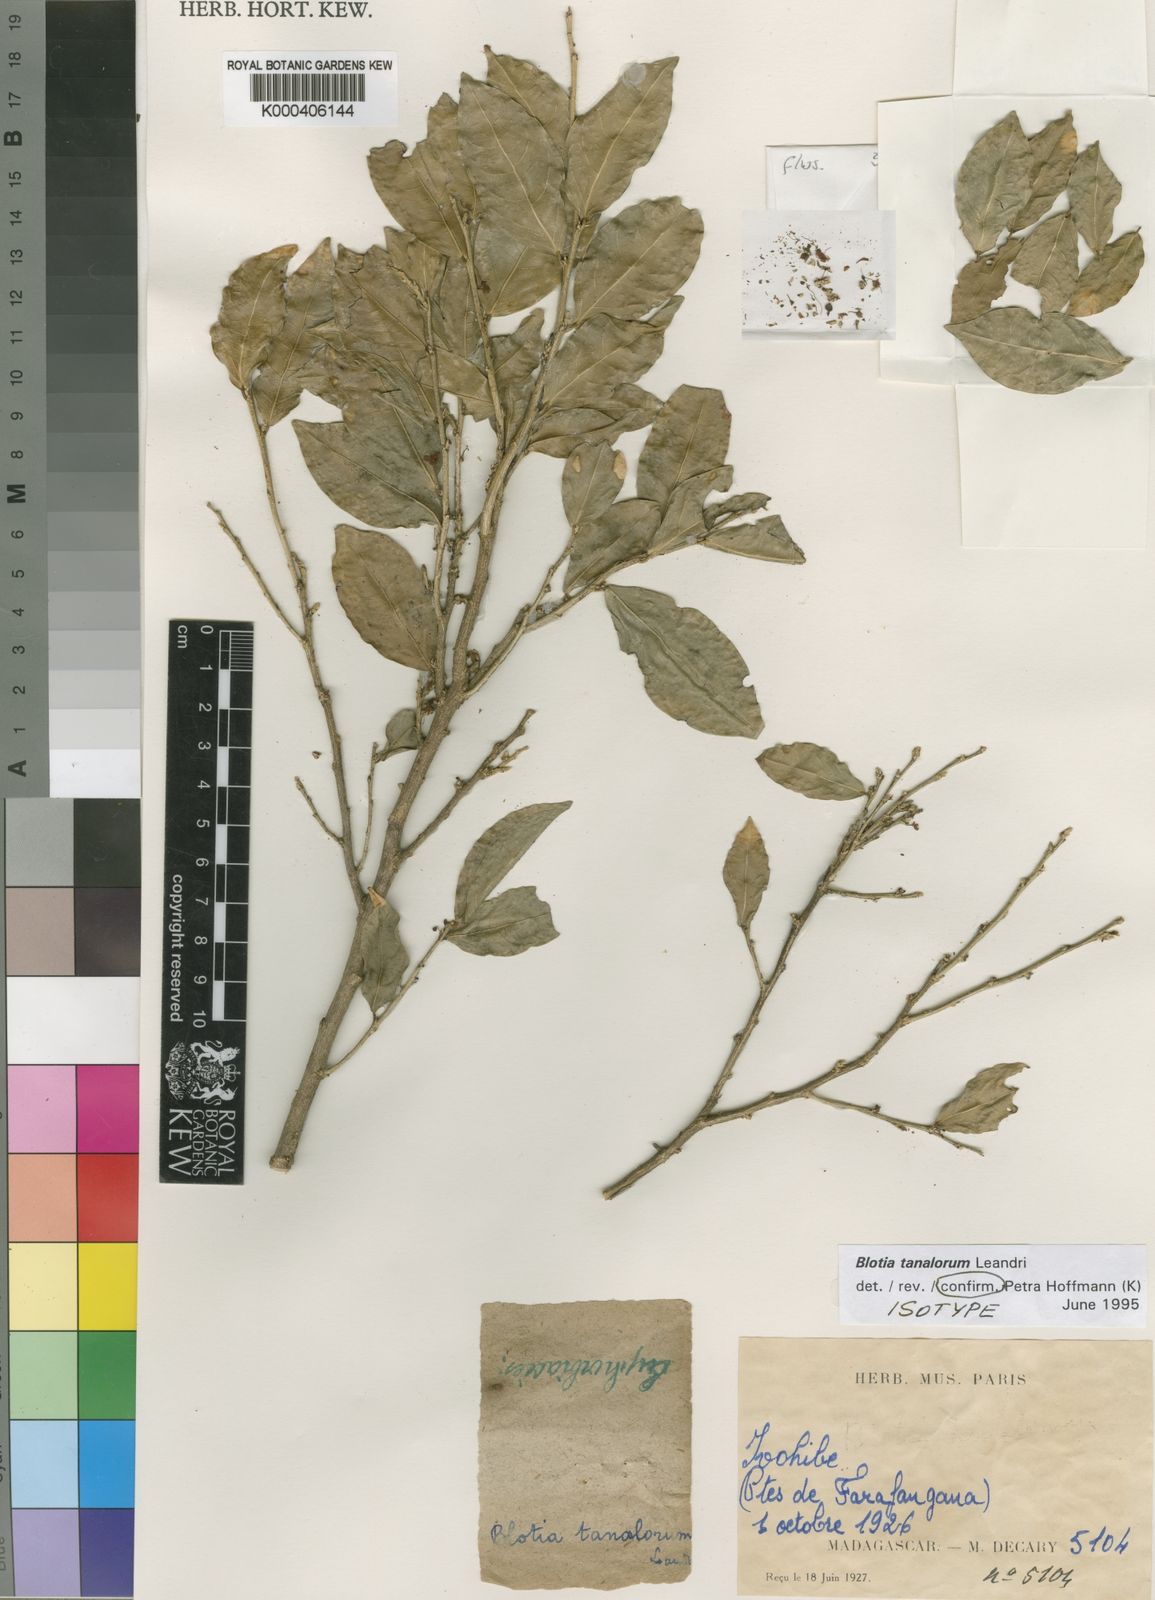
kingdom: Plantae
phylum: Tracheophyta
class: Magnoliopsida
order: Malpighiales
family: Phyllanthaceae
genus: Wielandia
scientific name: Wielandia tanalorum
